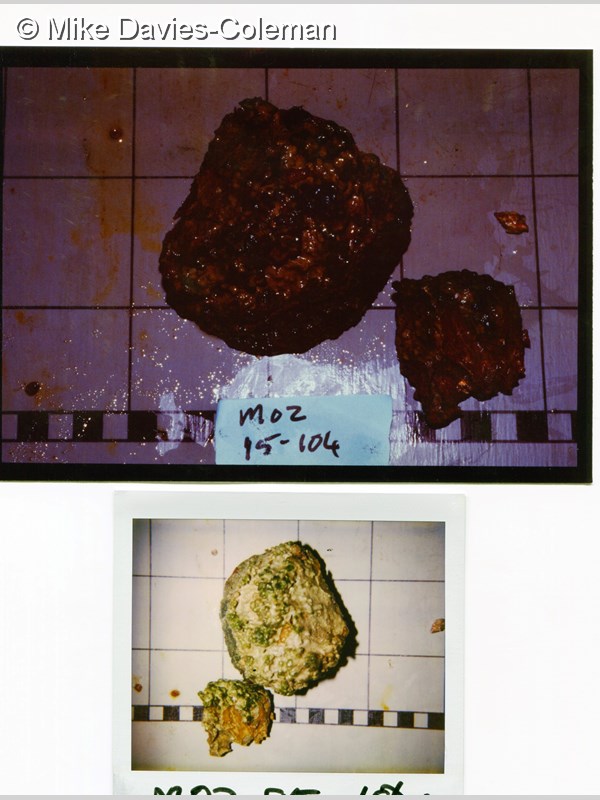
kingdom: Animalia
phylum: Porifera
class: Demospongiae
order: Poecilosclerida
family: Latrunculiidae
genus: Tsitsikamma
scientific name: Tsitsikamma favus
